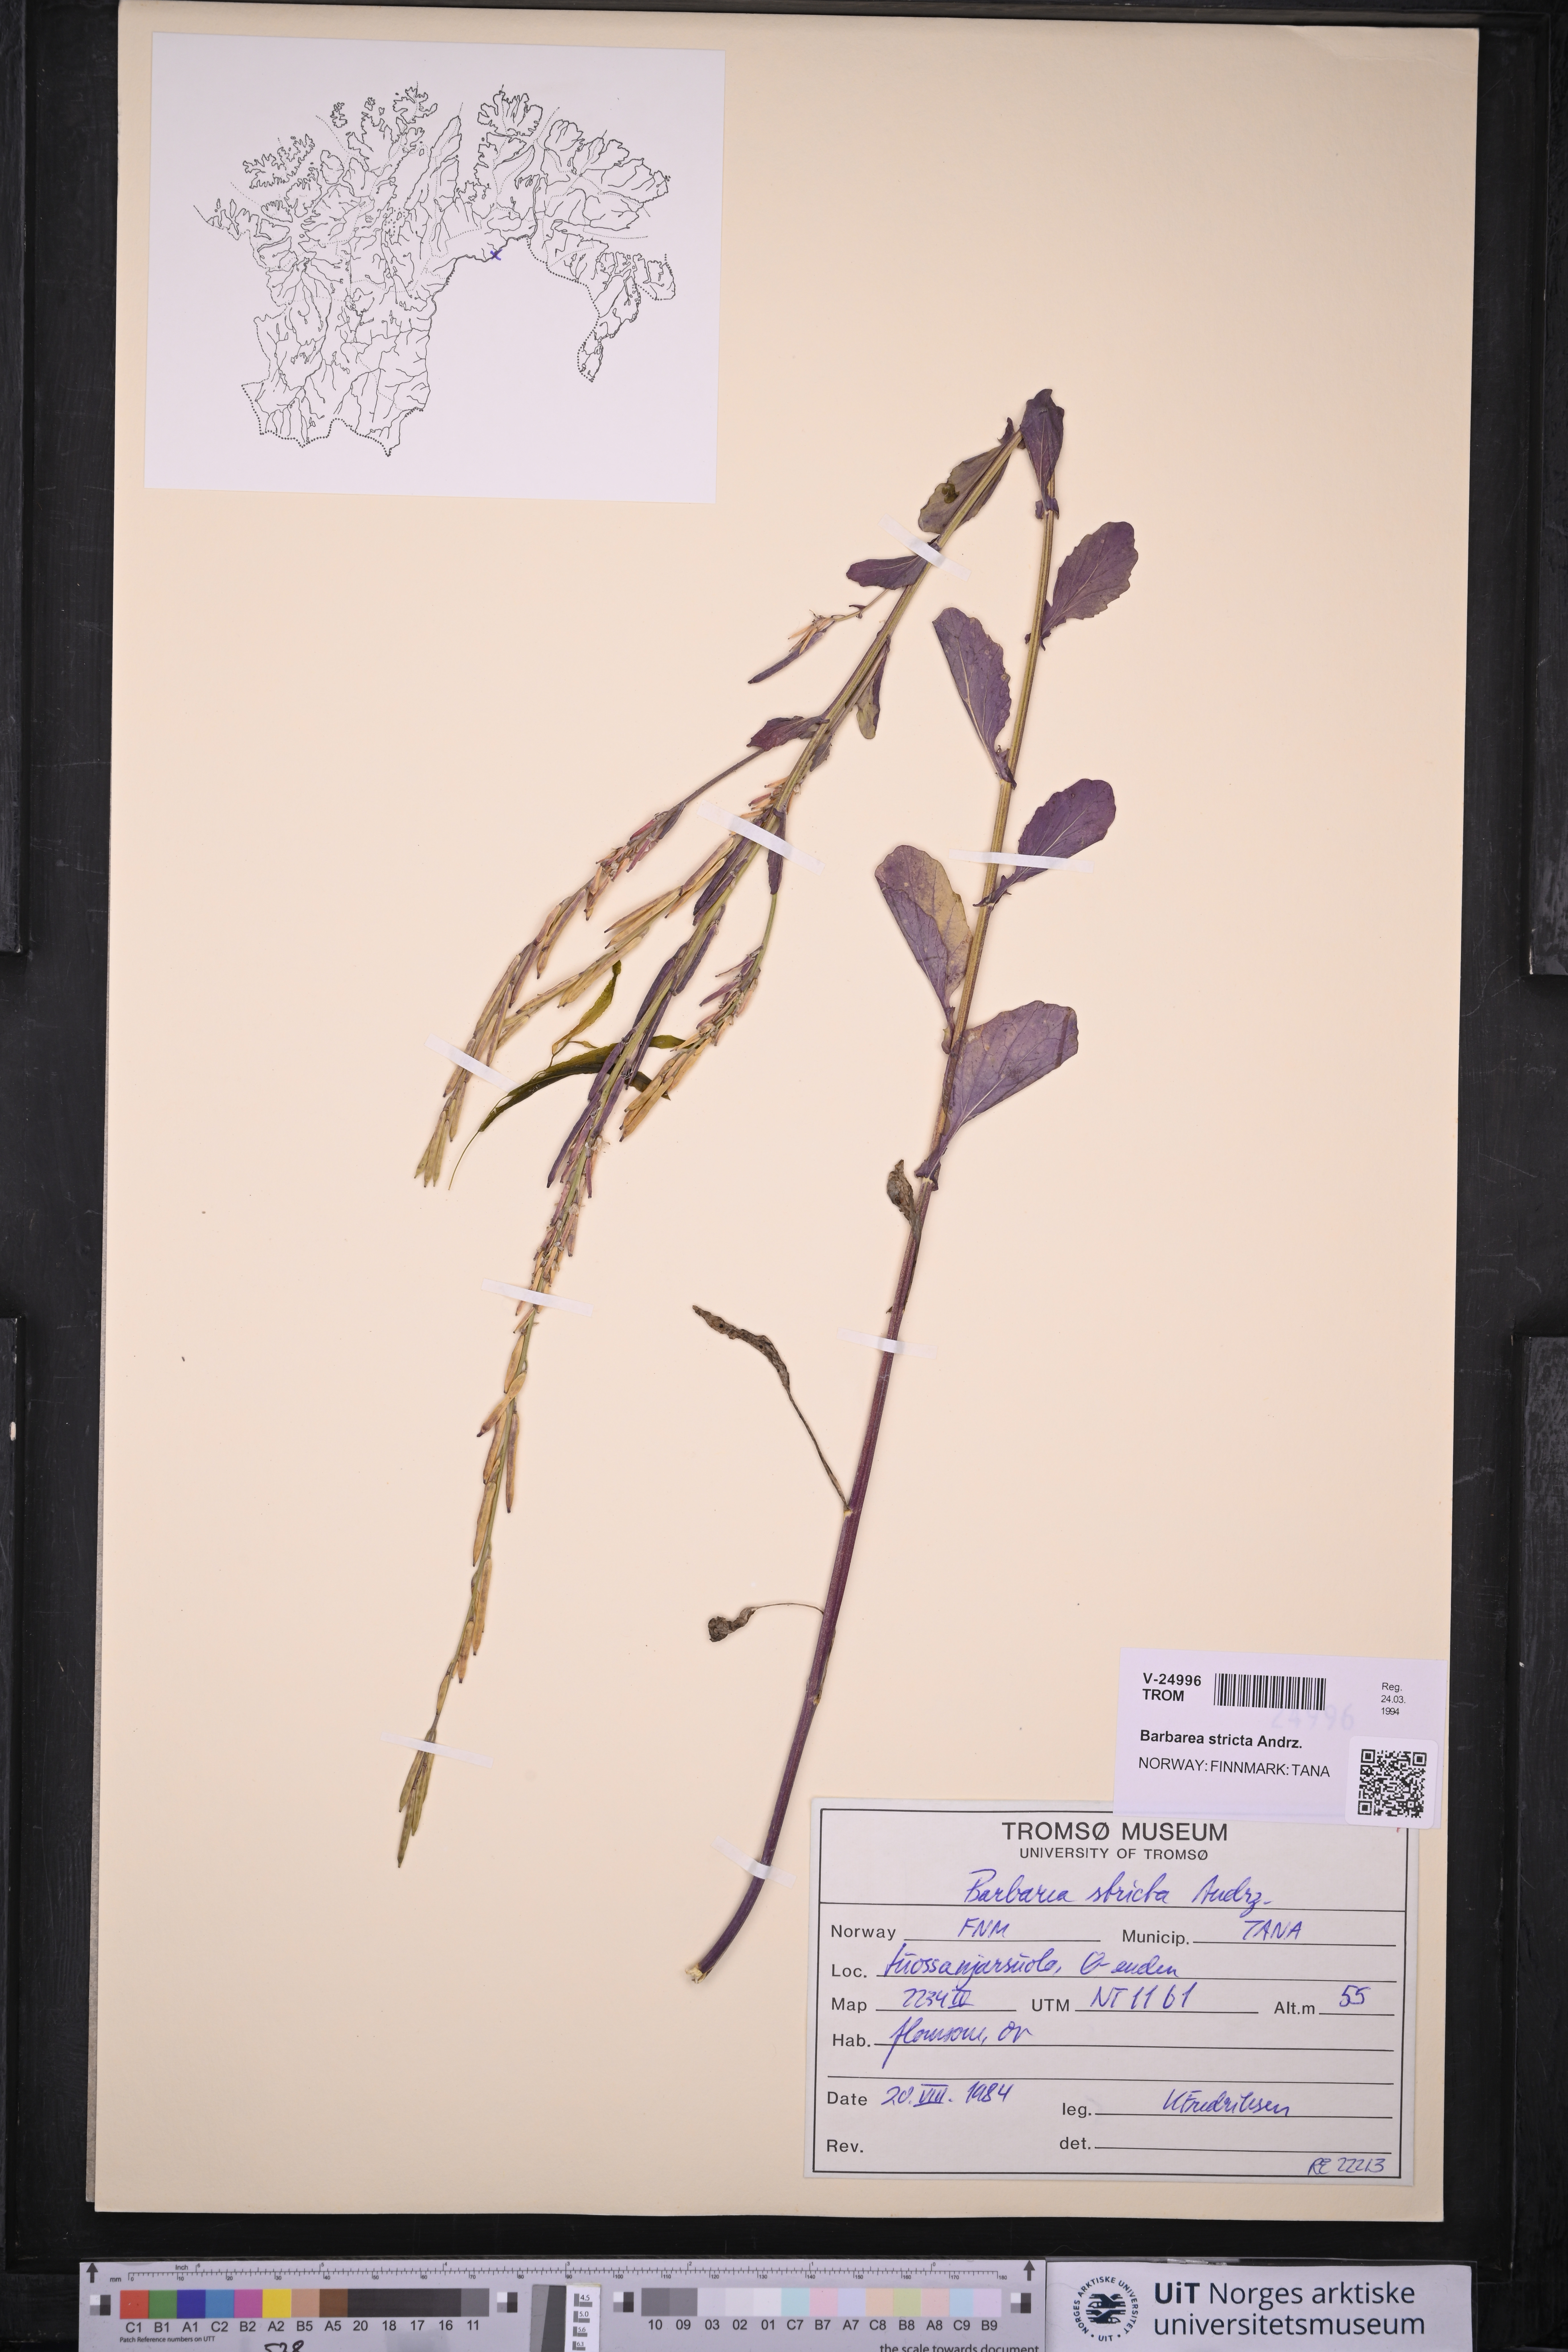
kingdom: Plantae
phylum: Tracheophyta
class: Magnoliopsida
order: Brassicales
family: Brassicaceae
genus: Barbarea
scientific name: Barbarea stricta
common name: Small-flowered winter-cress
